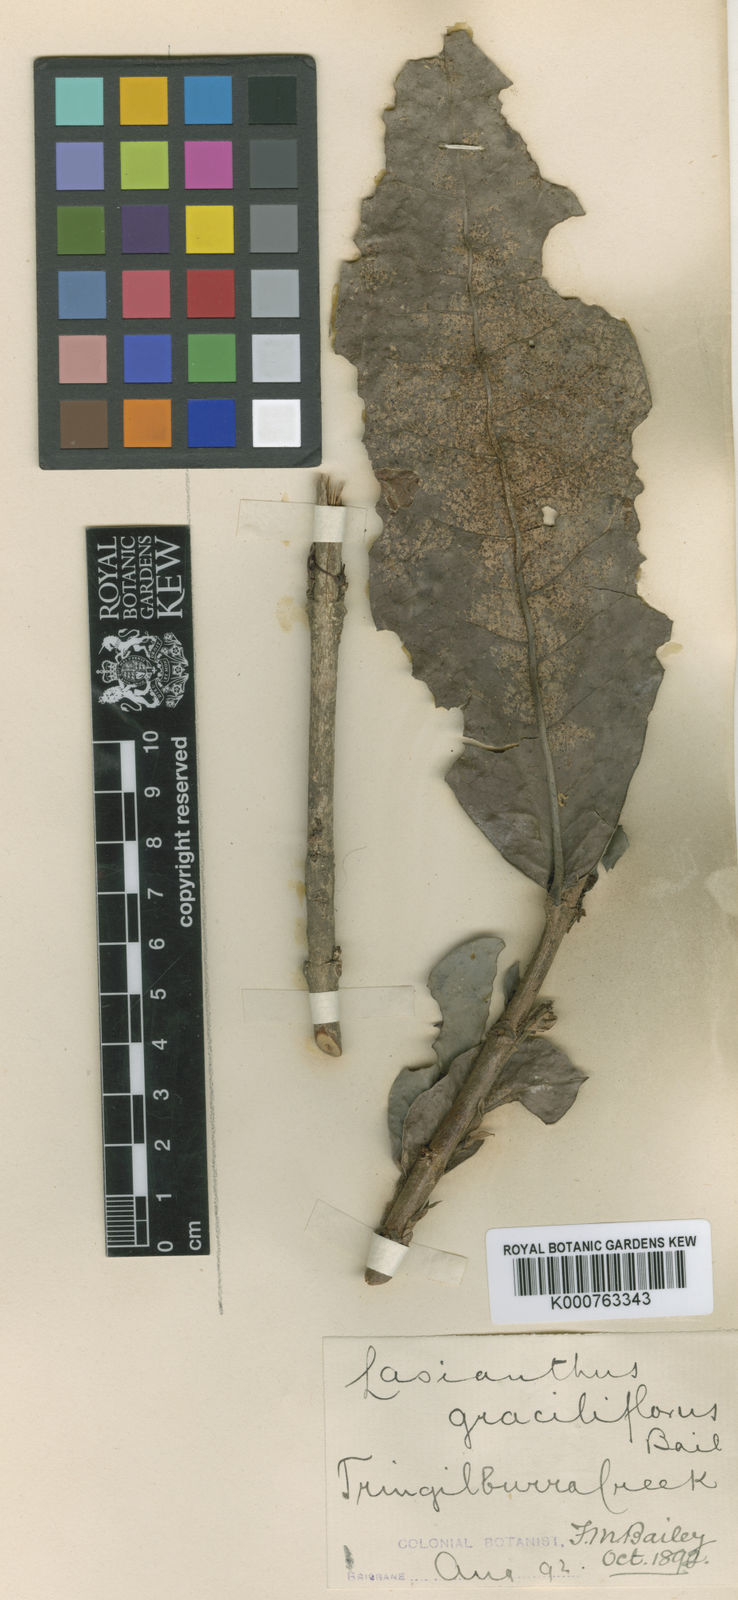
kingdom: Plantae
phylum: Tracheophyta
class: Magnoliopsida
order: Gentianales
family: Rubiaceae
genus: Ixora
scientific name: Ixora baileyana
